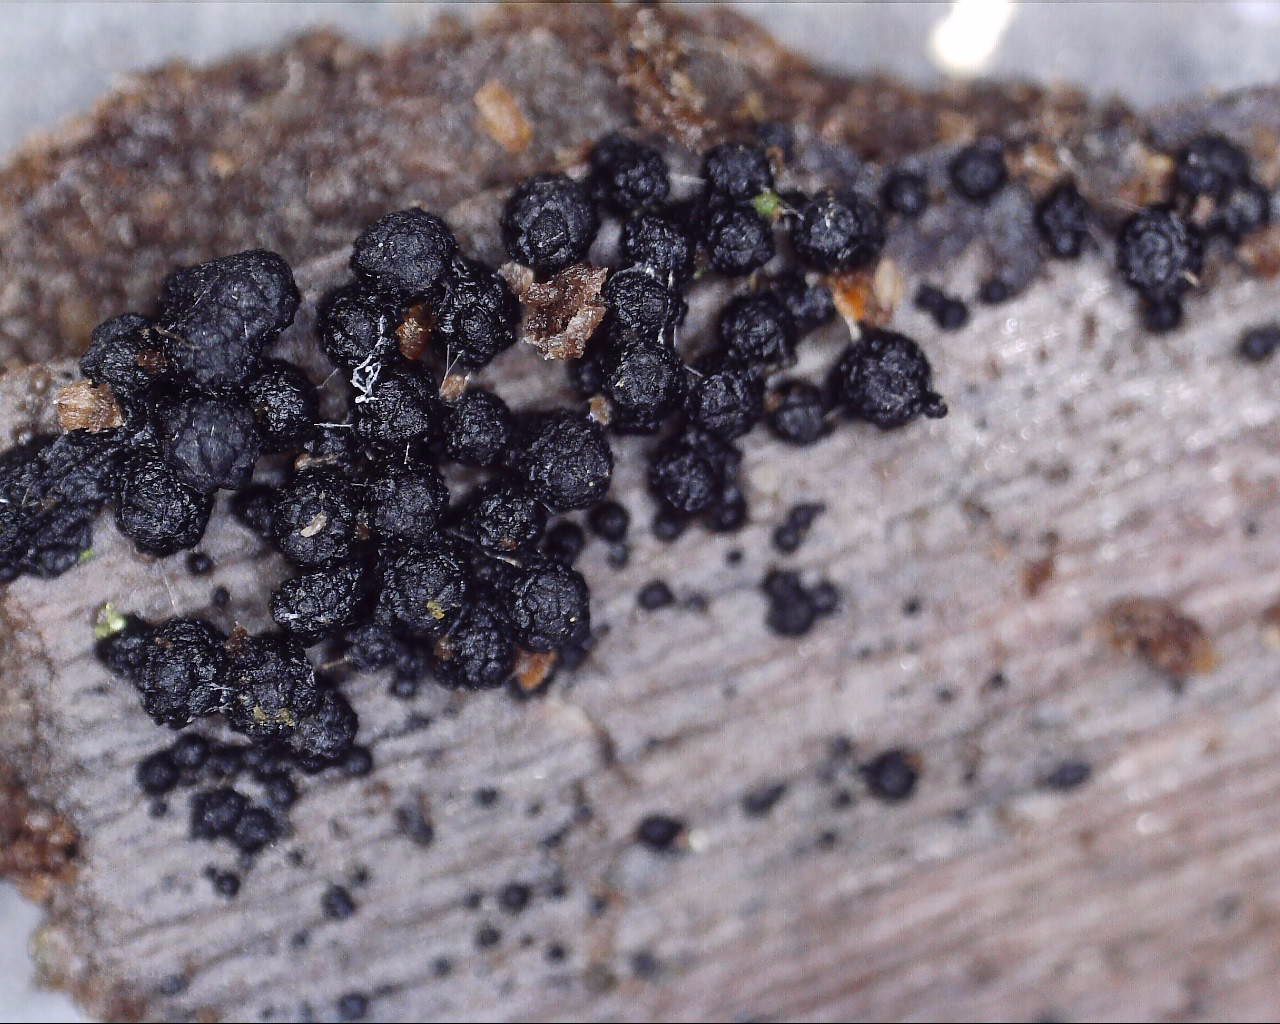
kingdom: Fungi
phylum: Ascomycota
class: Sordariomycetes
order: Coronophorales
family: Bertiaceae
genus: Bertia
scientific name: Bertia moriformis
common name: almindelig morbærkerne
